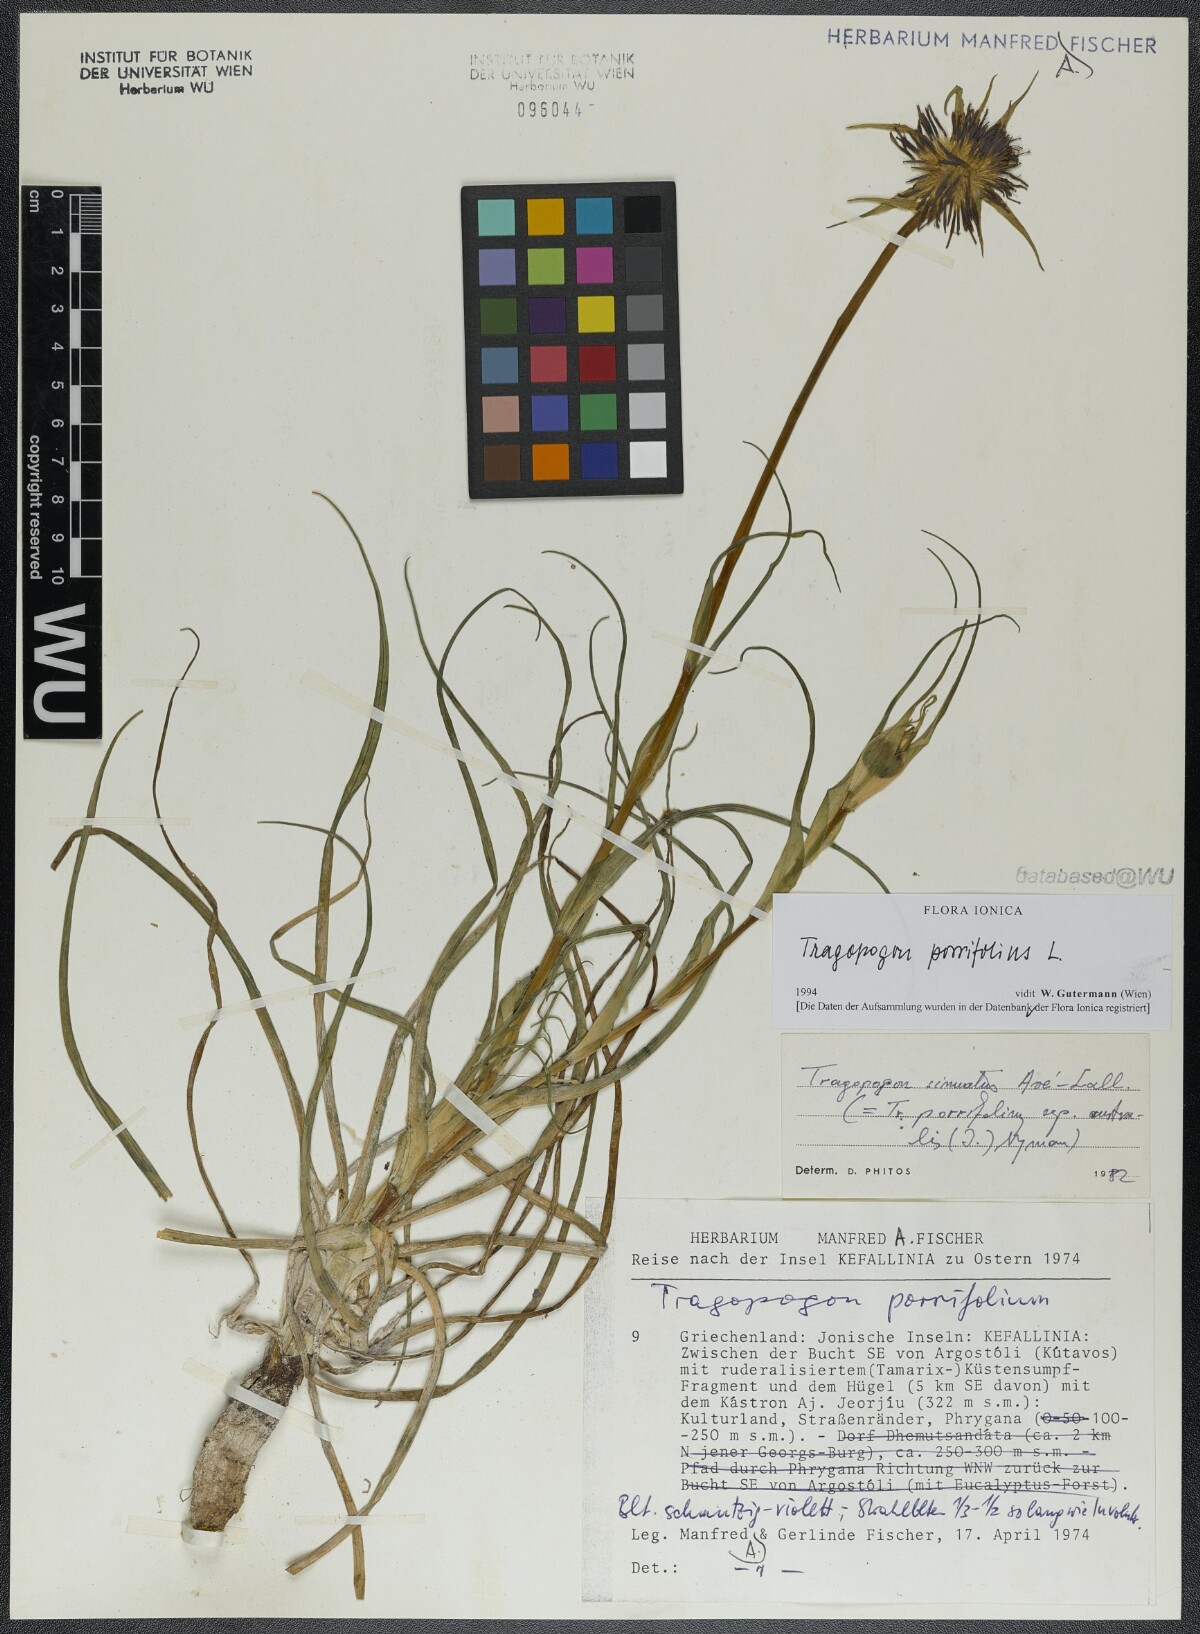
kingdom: Plantae
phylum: Tracheophyta
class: Magnoliopsida
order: Asterales
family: Asteraceae
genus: Tragopogon
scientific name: Tragopogon porrifolius
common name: Salsify
